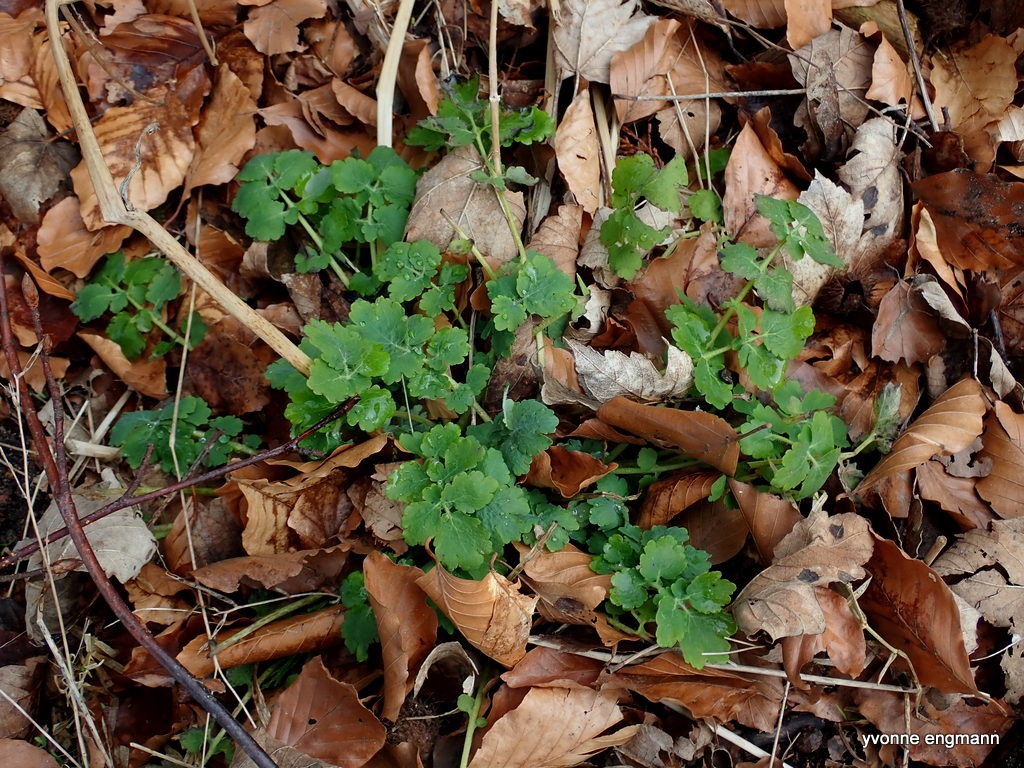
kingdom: Plantae
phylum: Tracheophyta
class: Magnoliopsida
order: Ranunculales
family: Papaveraceae
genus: Chelidonium
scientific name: Chelidonium majus
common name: Svaleurt
